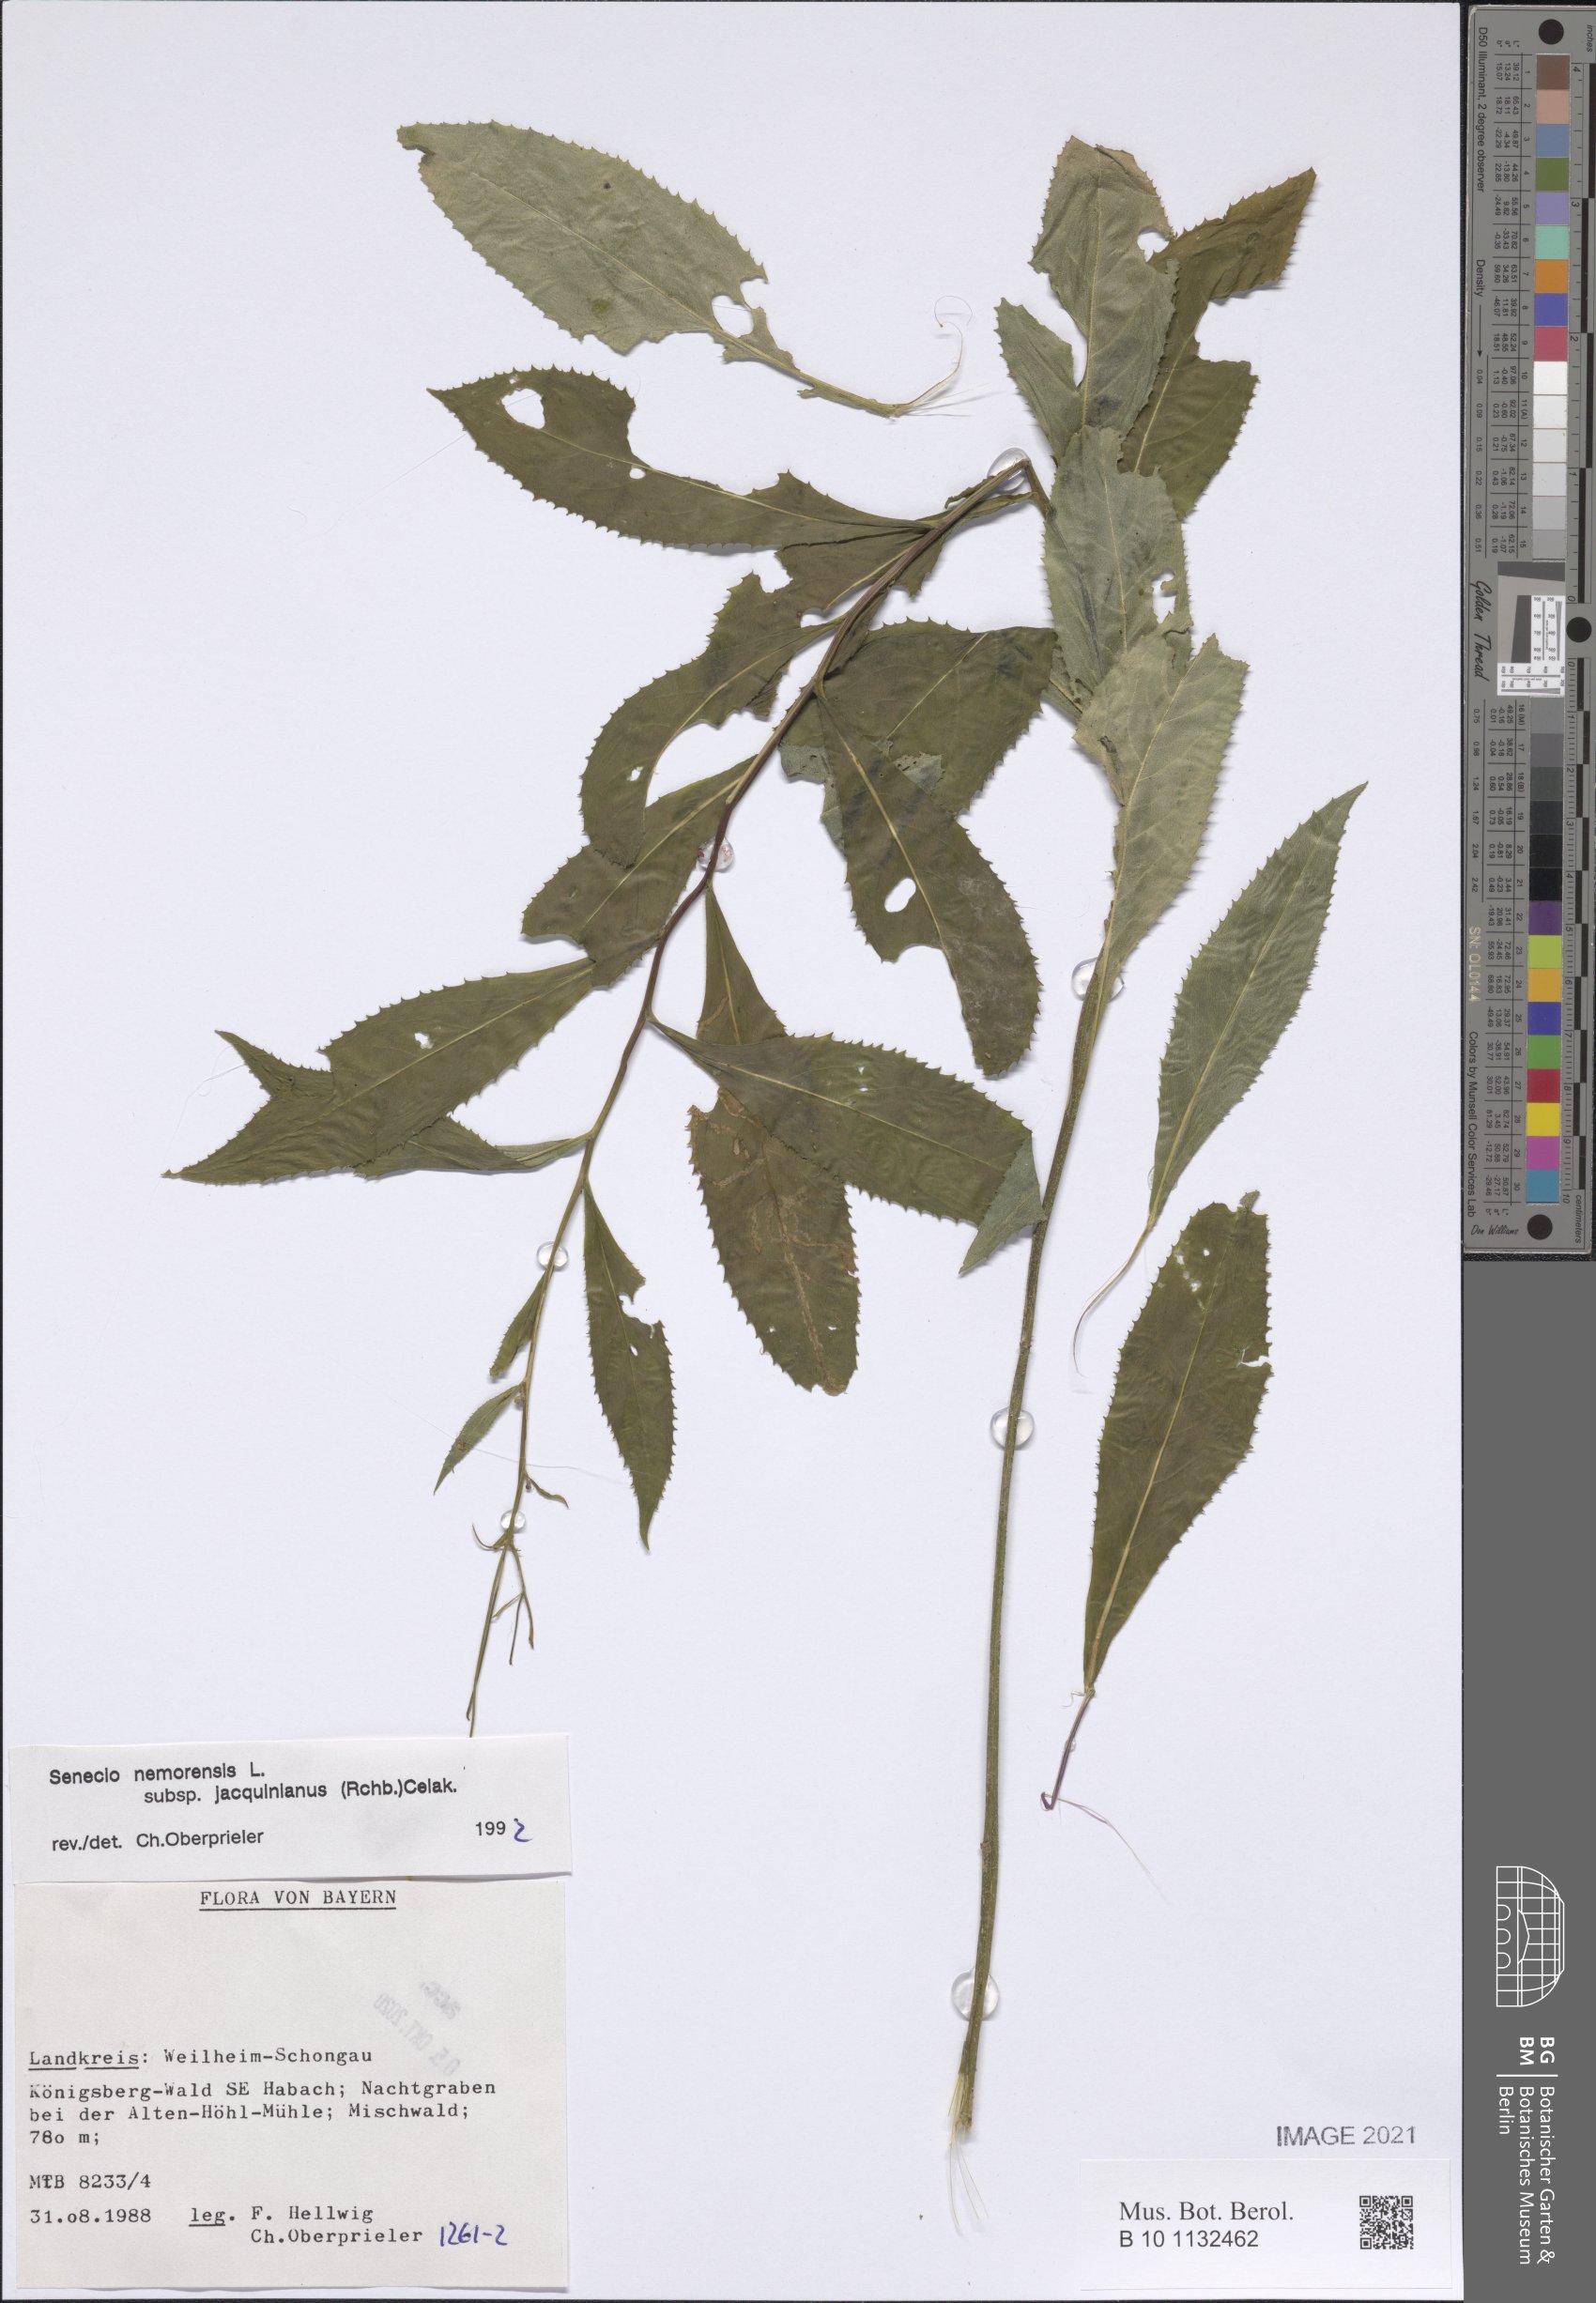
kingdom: Plantae
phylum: Tracheophyta
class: Magnoliopsida
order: Asterales
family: Asteraceae
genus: Senecio
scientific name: Senecio germanicus
